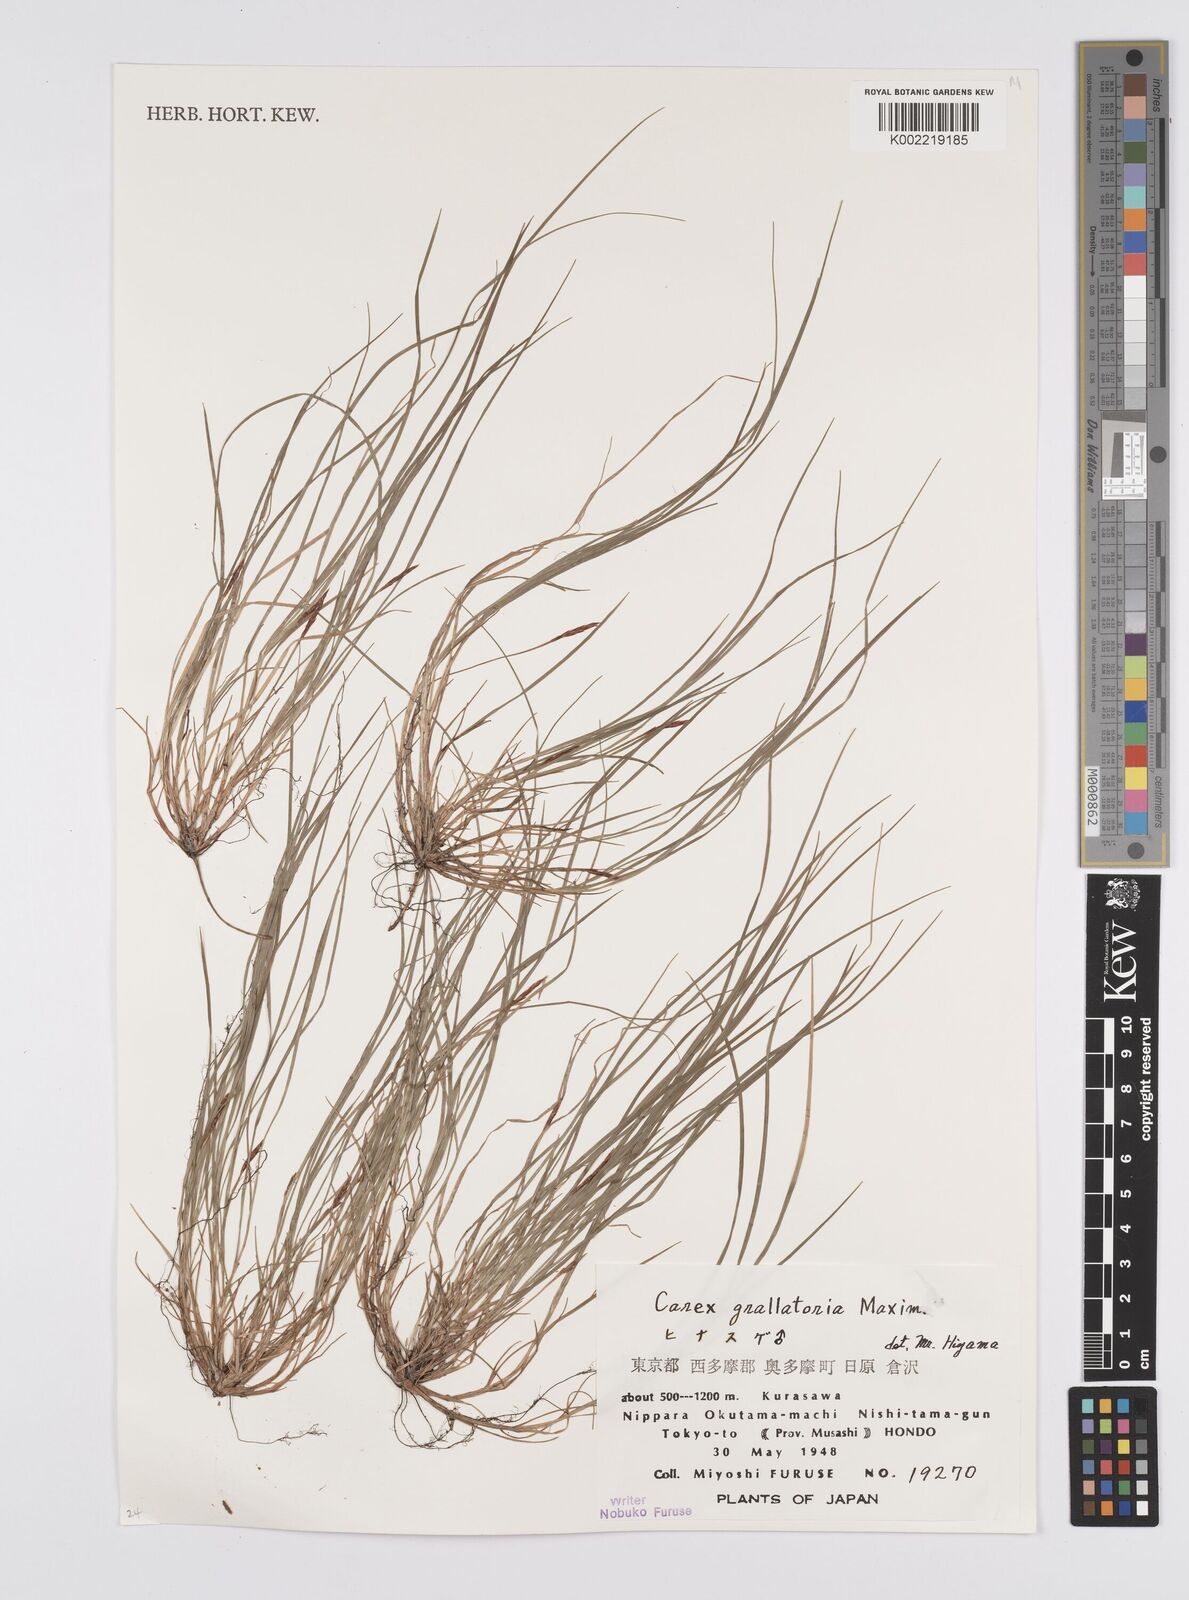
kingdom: Plantae
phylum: Tracheophyta
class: Liliopsida
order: Poales
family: Cyperaceae
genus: Carex
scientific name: Carex grallatoria
